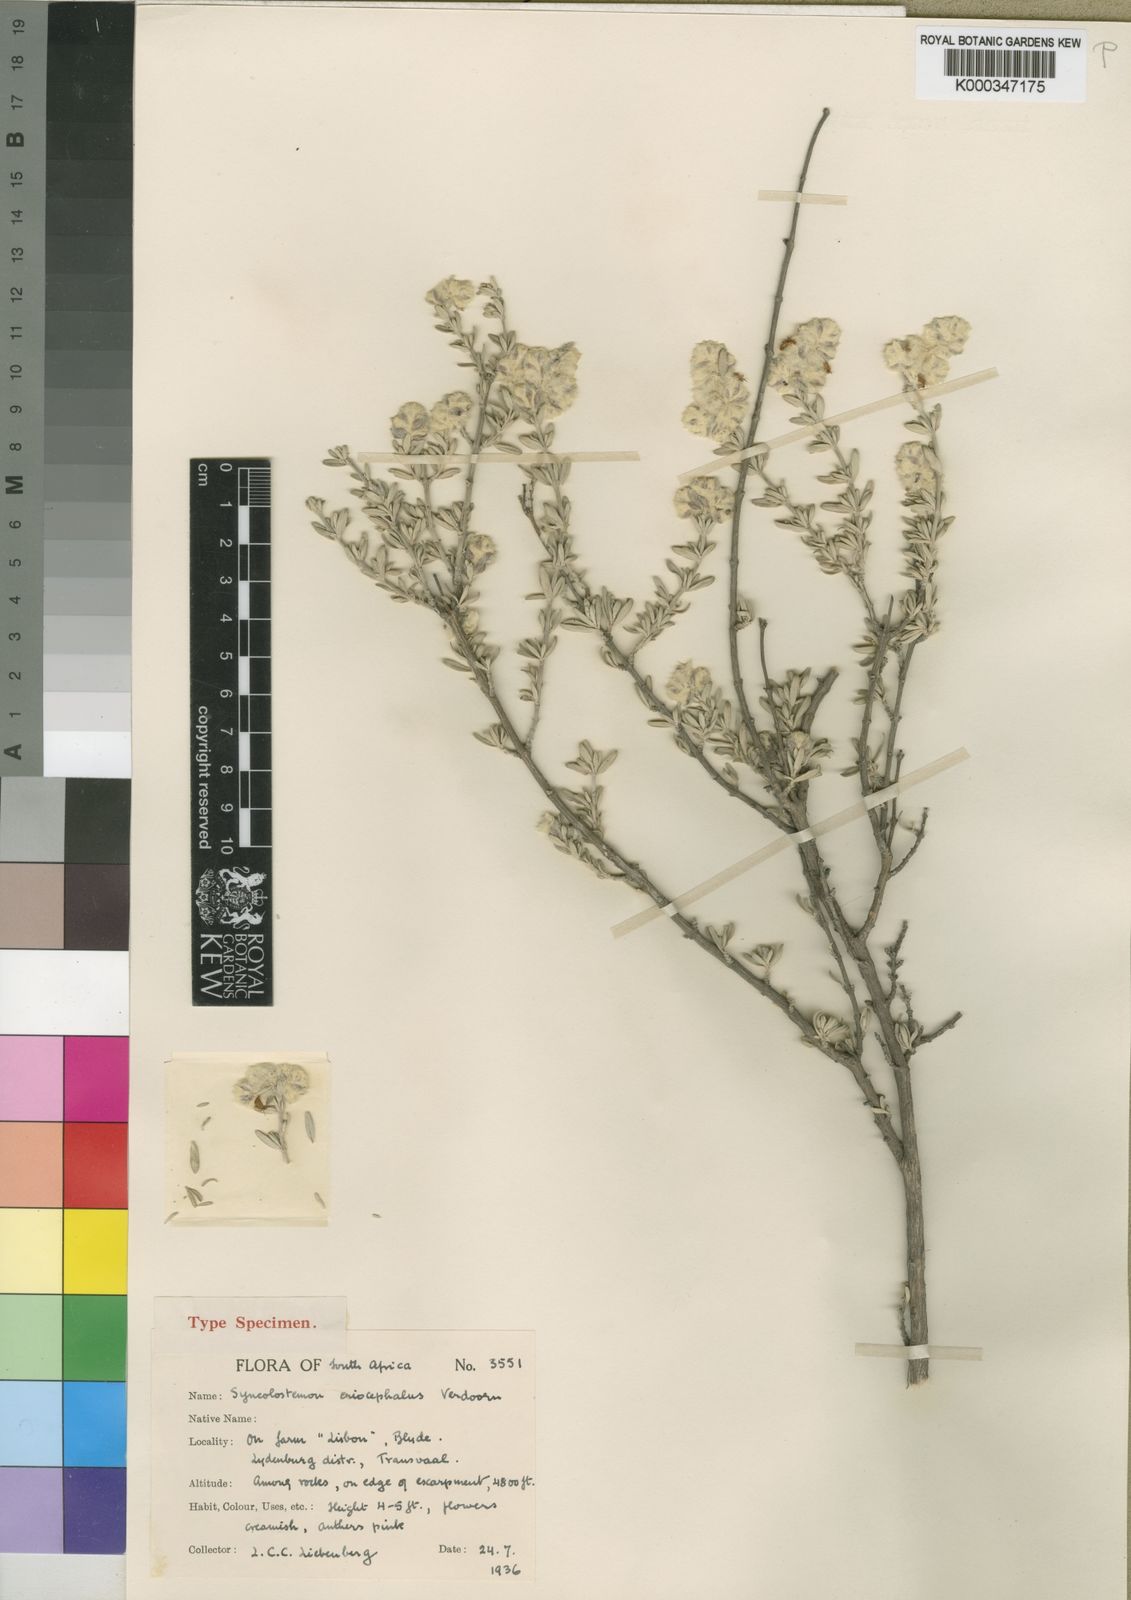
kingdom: Plantae
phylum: Tracheophyta
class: Magnoliopsida
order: Lamiales
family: Lamiaceae
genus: Syncolostemon
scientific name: Syncolostemon eriocephalus
